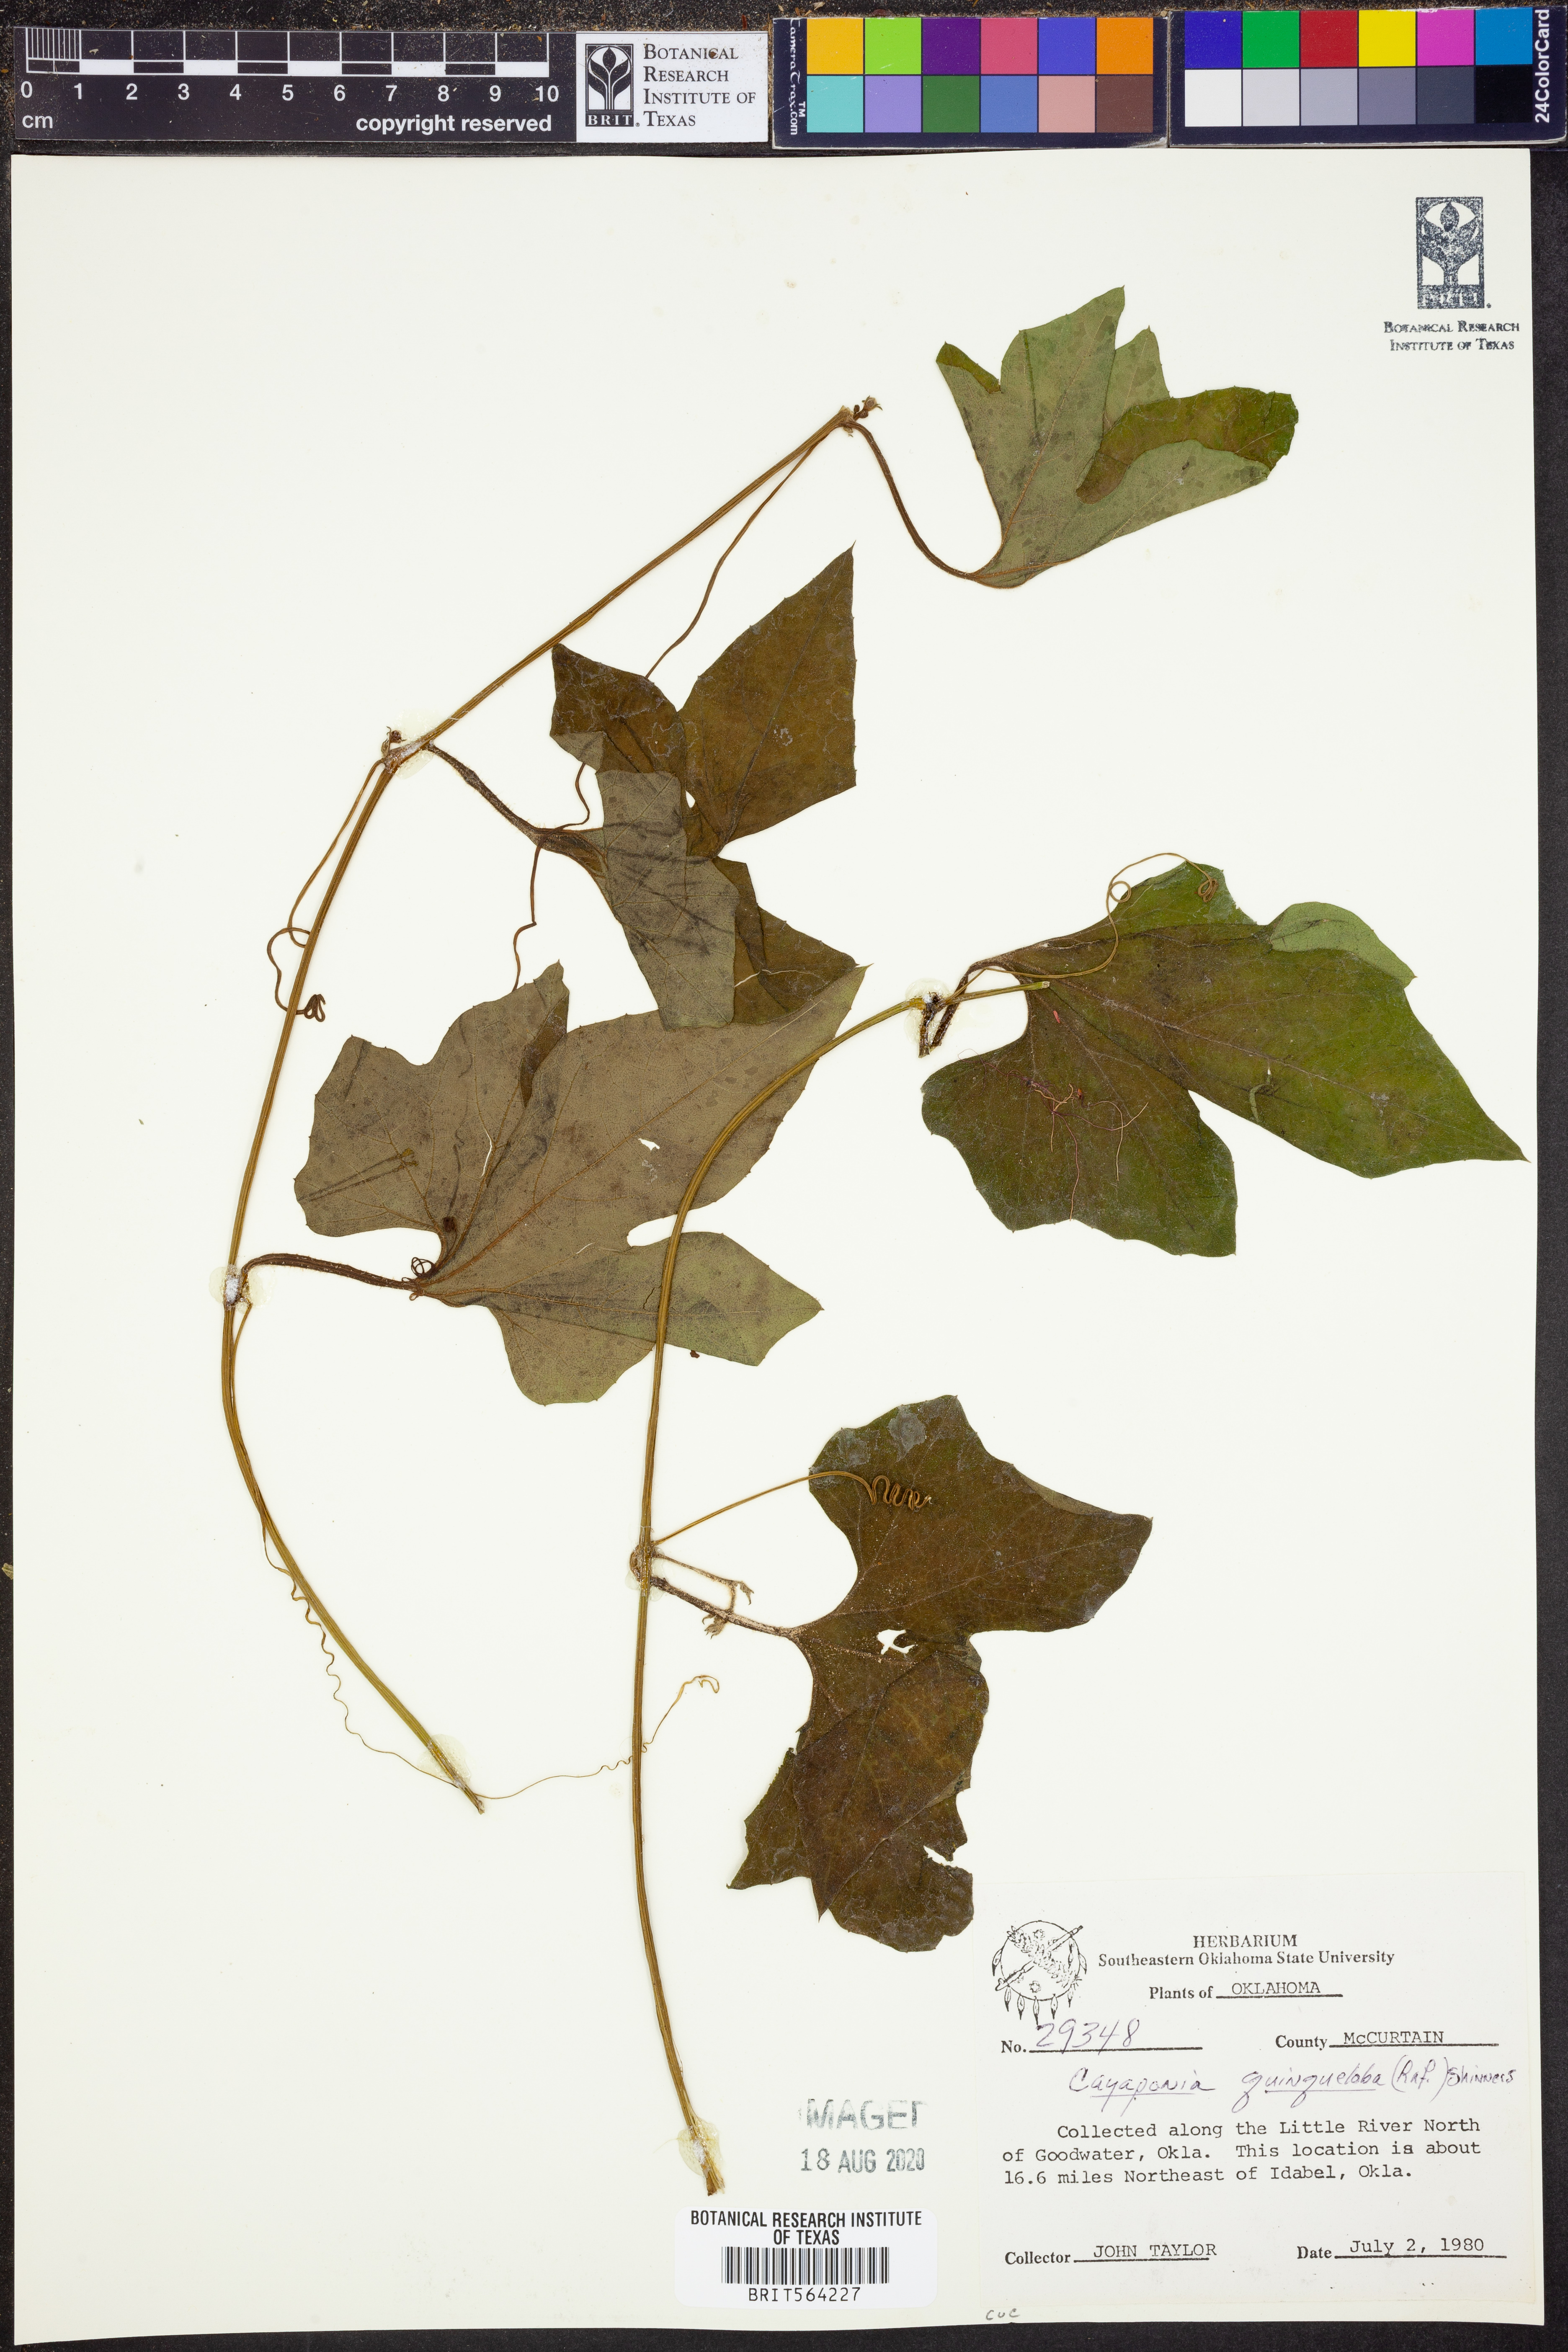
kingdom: Plantae
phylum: Tracheophyta
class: Magnoliopsida
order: Cucurbitales
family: Cucurbitaceae
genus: Cayaponia
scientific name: Cayaponia quinqueloba
